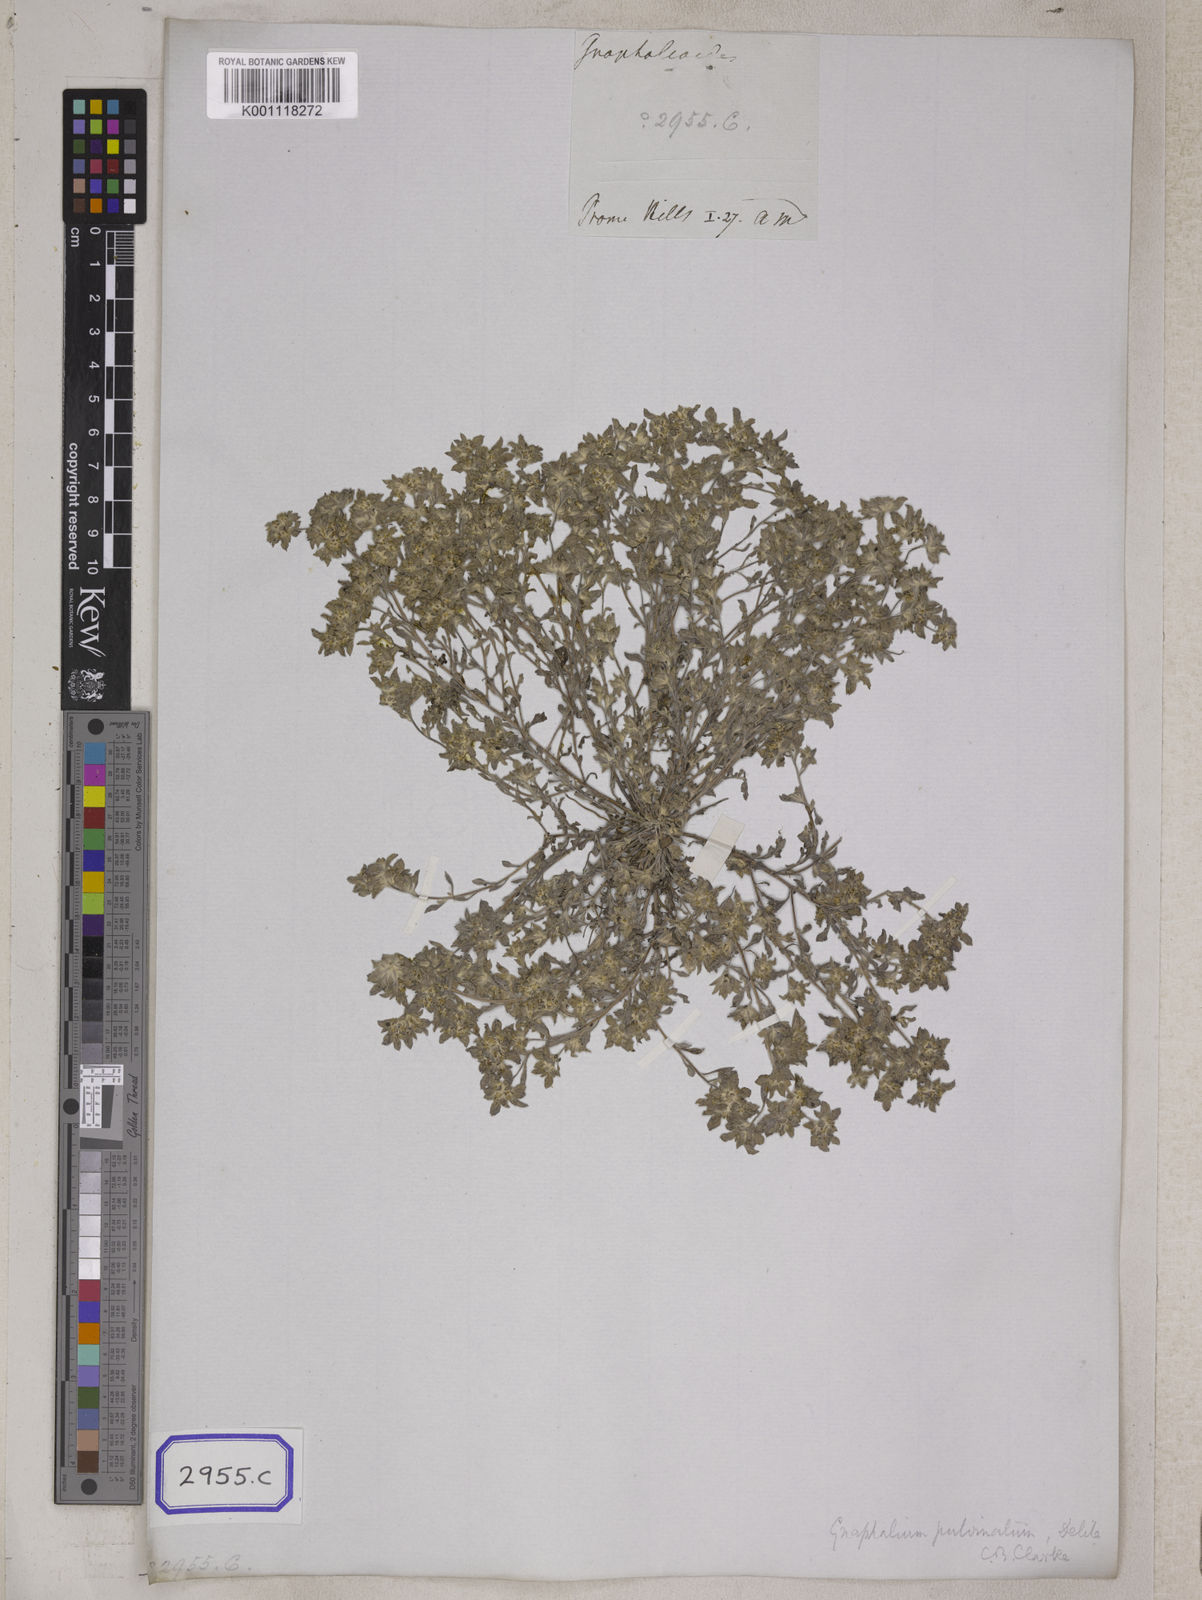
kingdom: Plantae
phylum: Tracheophyta
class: Magnoliopsida
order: Asterales
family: Asteraceae
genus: Gnomophalium
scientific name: Gnomophalium pulvinatum
